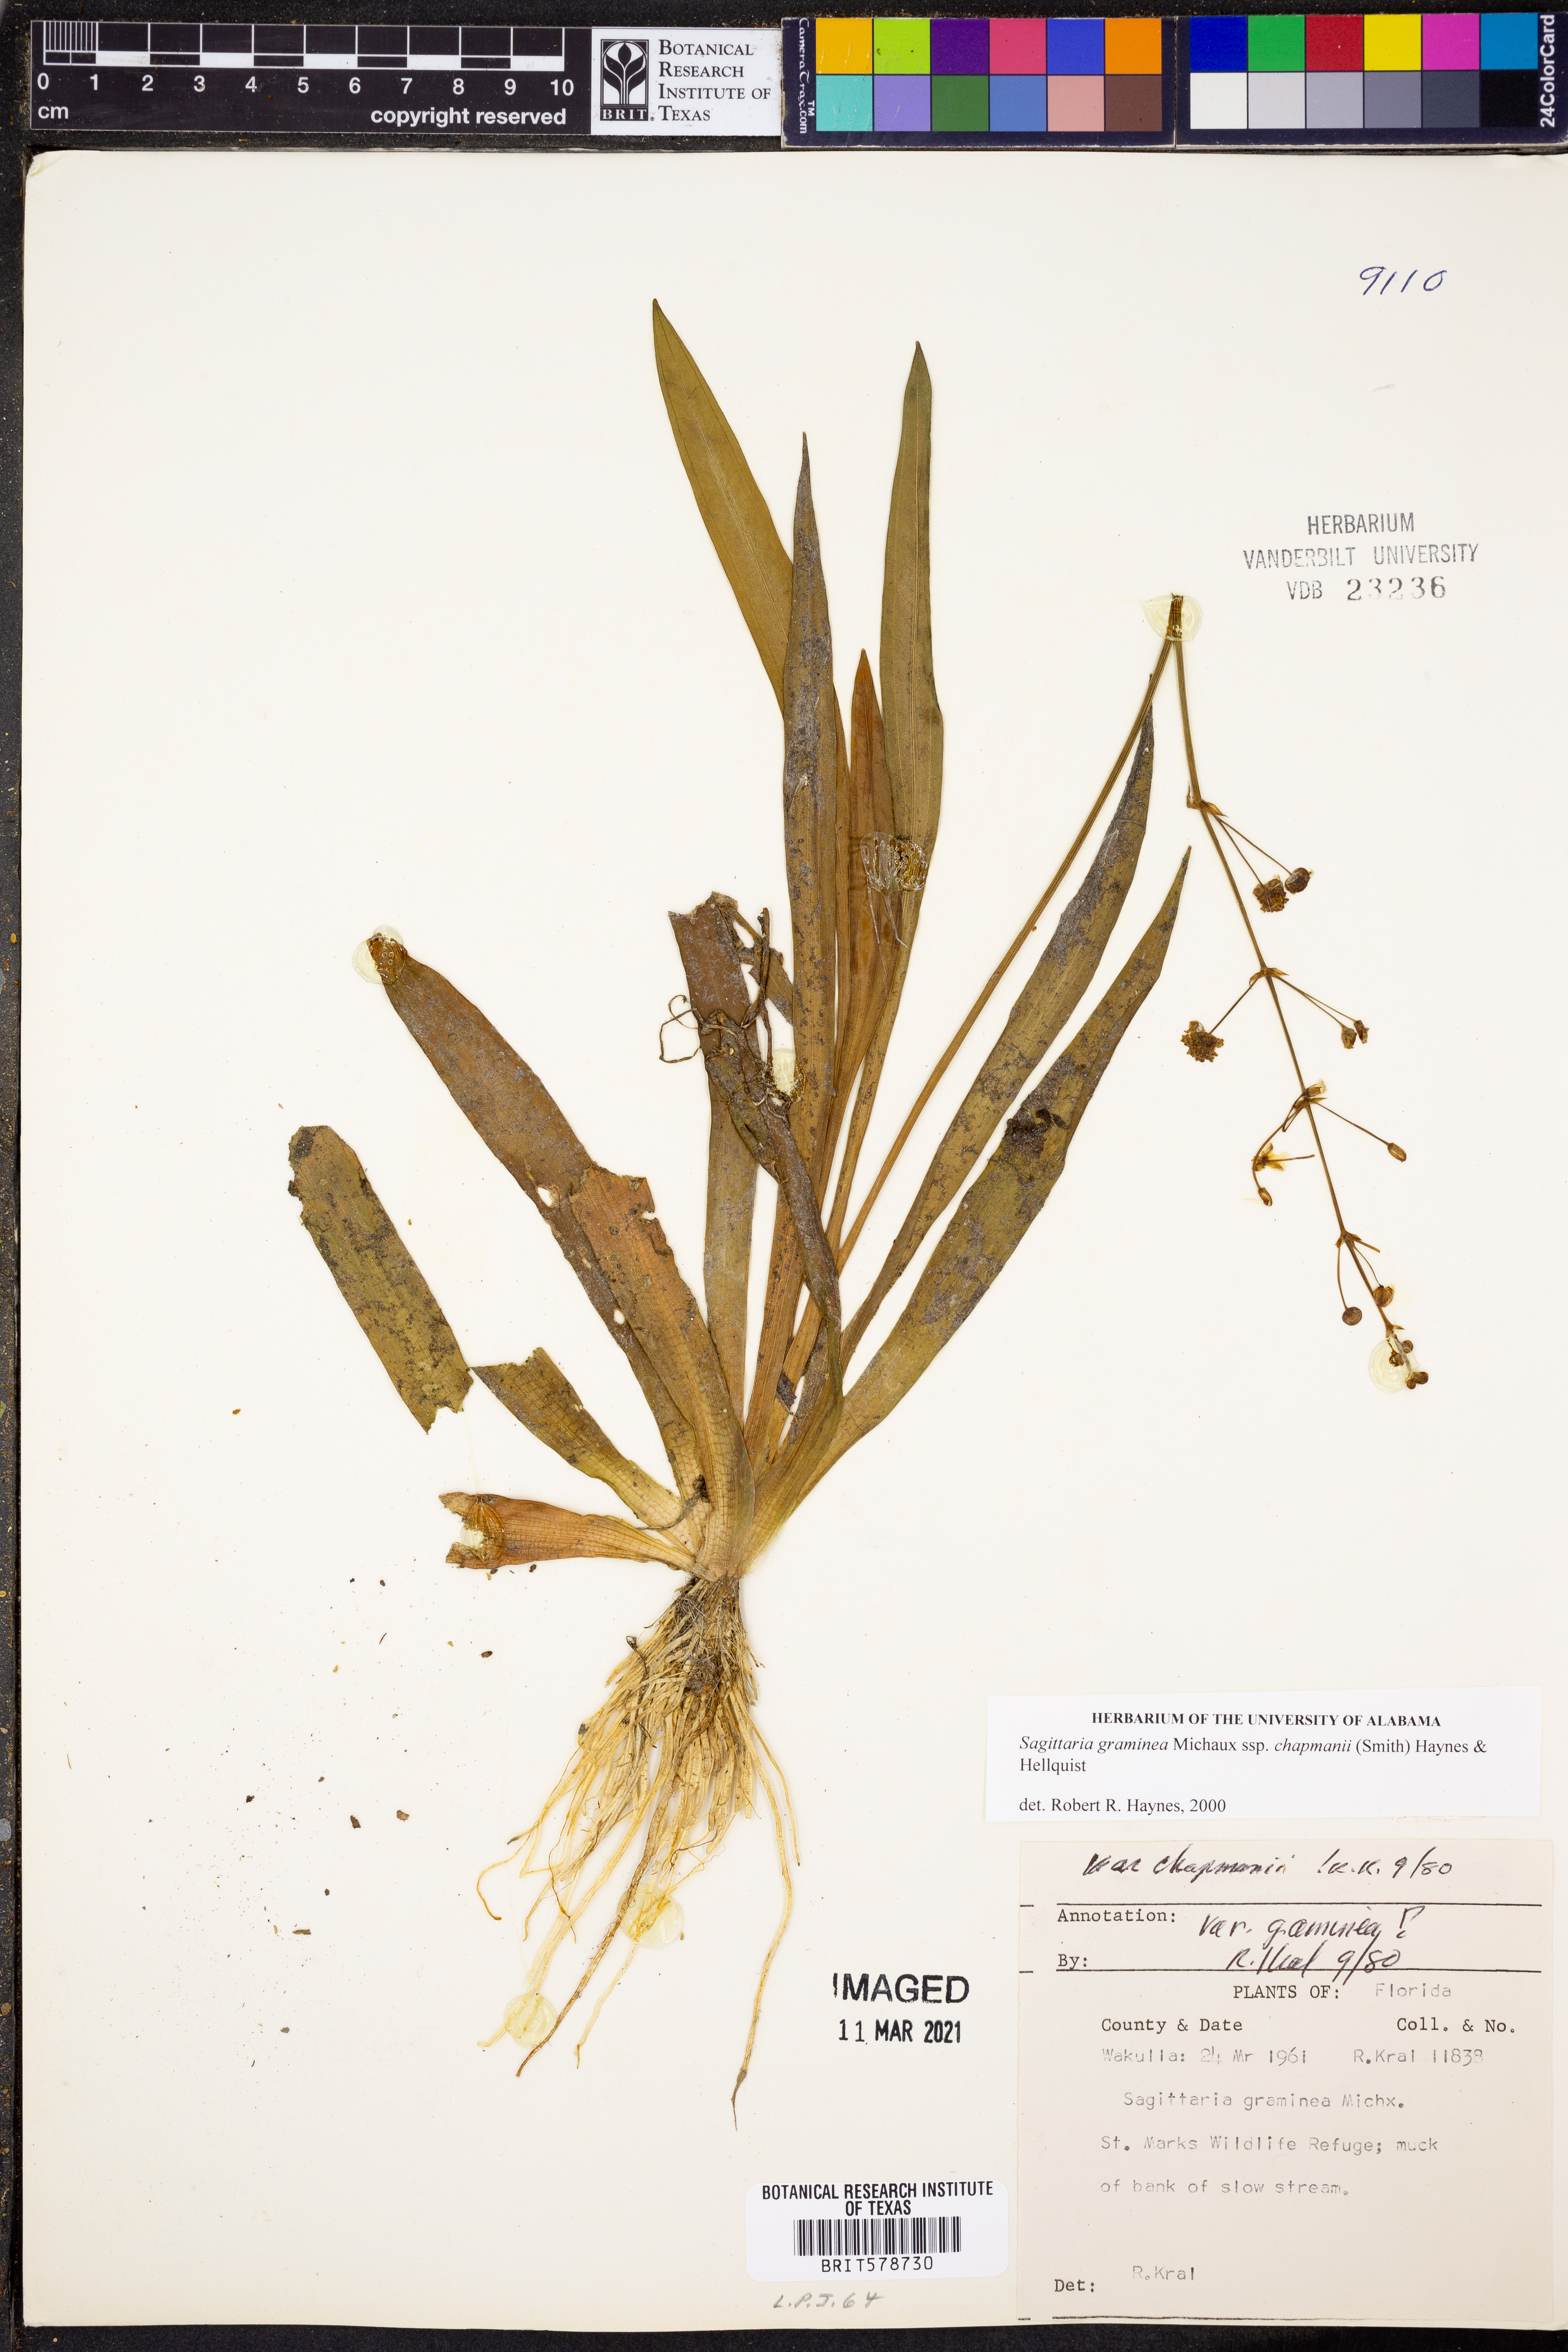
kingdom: Plantae
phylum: Tracheophyta
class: Liliopsida
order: Alismatales
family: Alismataceae
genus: Sagittaria
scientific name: Sagittaria graminea
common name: Grass-leaved arrowhead
